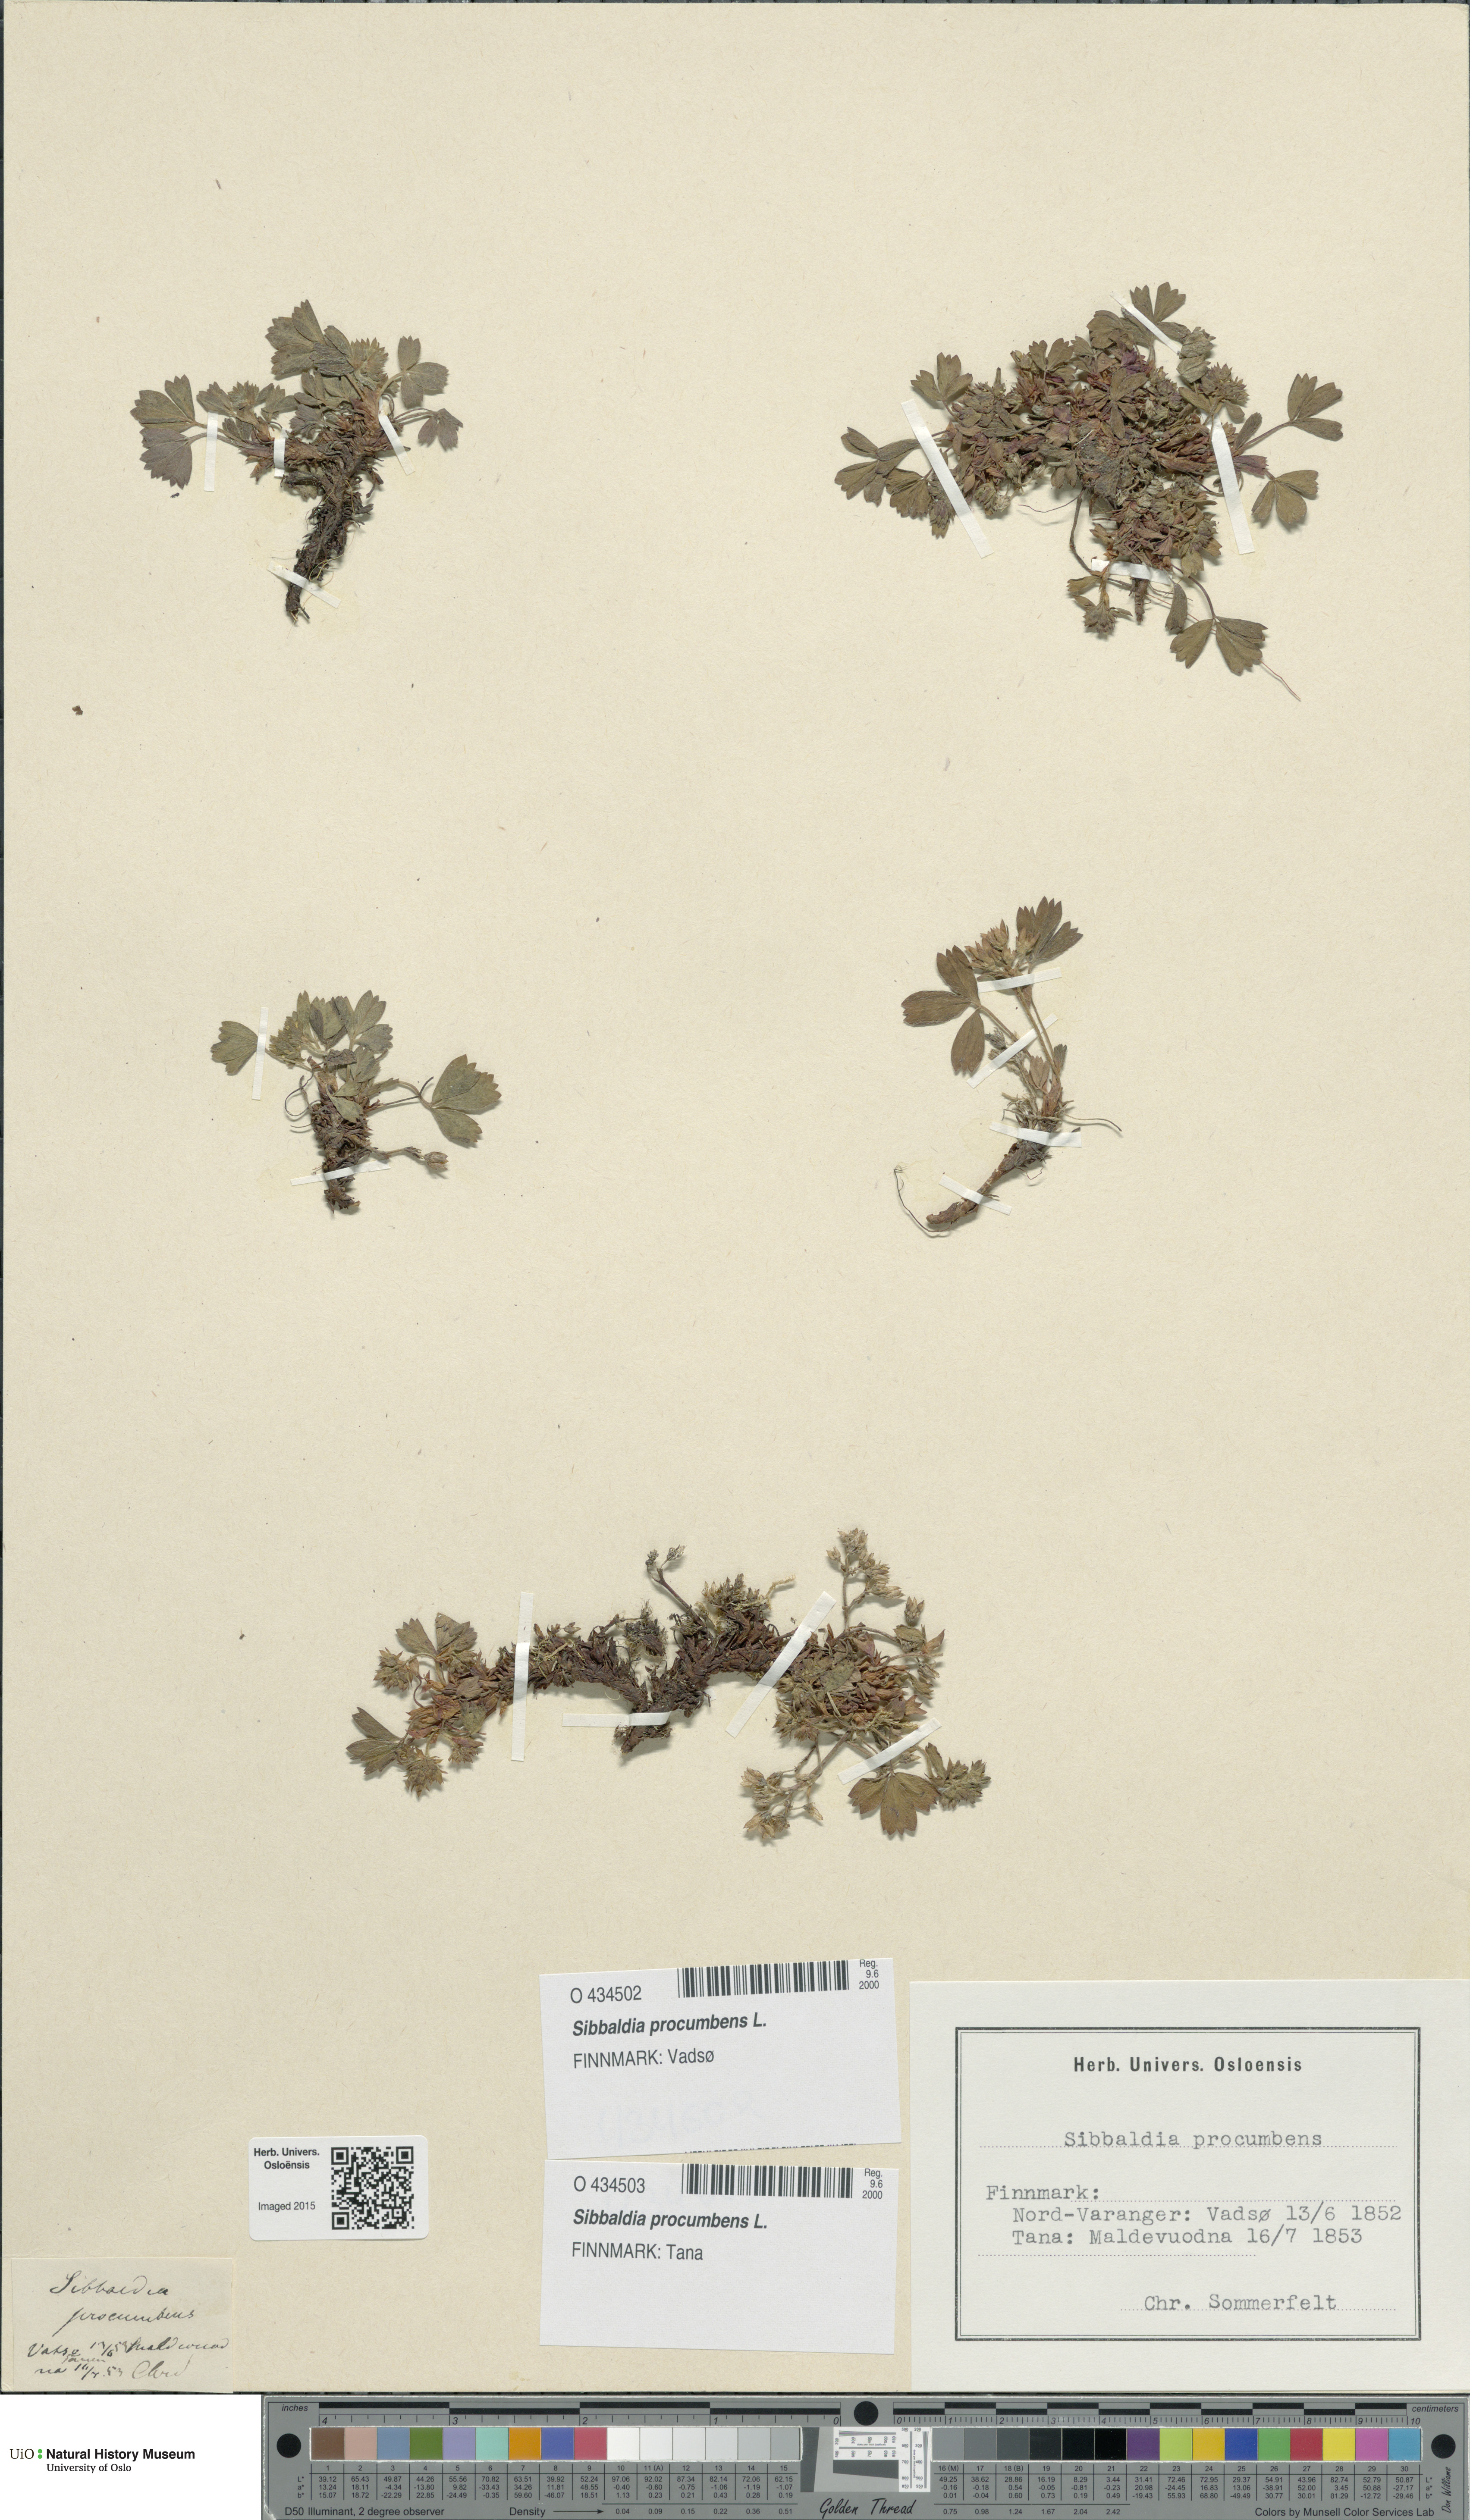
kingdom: Plantae
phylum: Tracheophyta
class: Magnoliopsida
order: Rosales
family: Rosaceae
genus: Sibbaldia
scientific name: Sibbaldia procumbens
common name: Creeping sibbaldia
